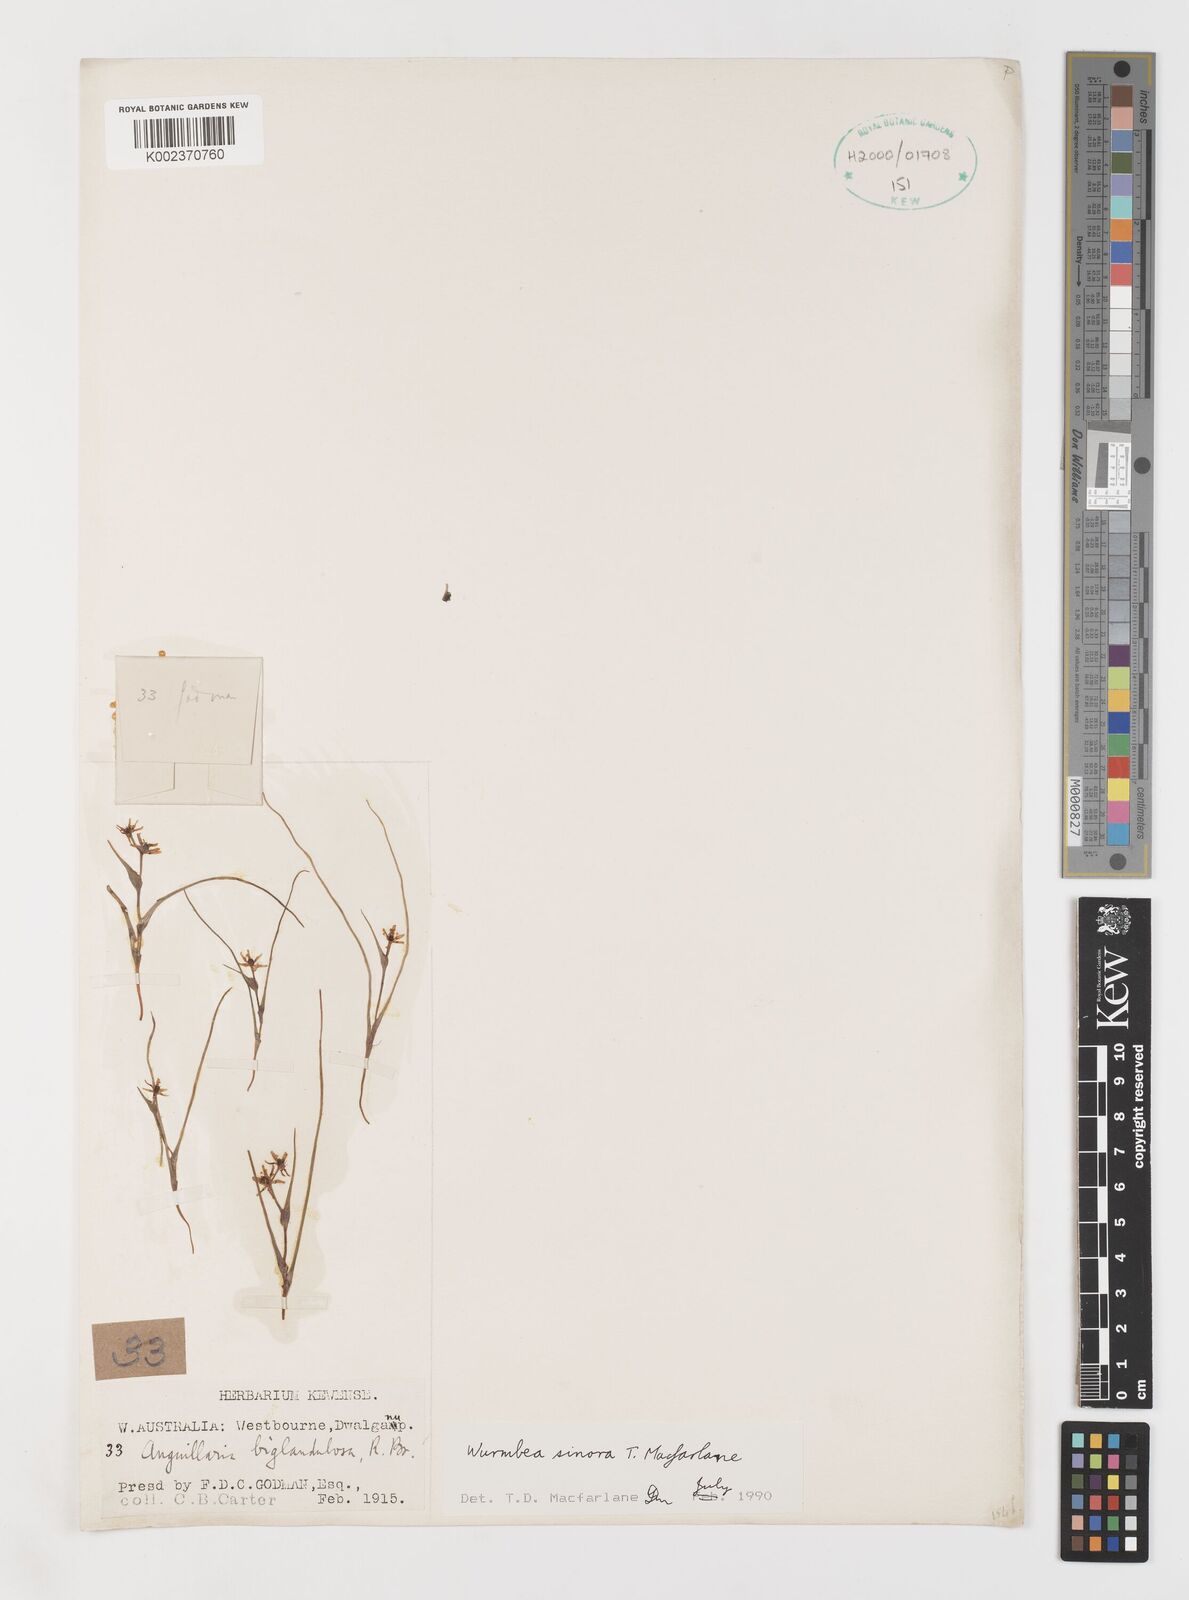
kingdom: Plantae
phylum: Tracheophyta
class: Liliopsida
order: Liliales
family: Colchicaceae
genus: Wurmbea
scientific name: Wurmbea sinora
